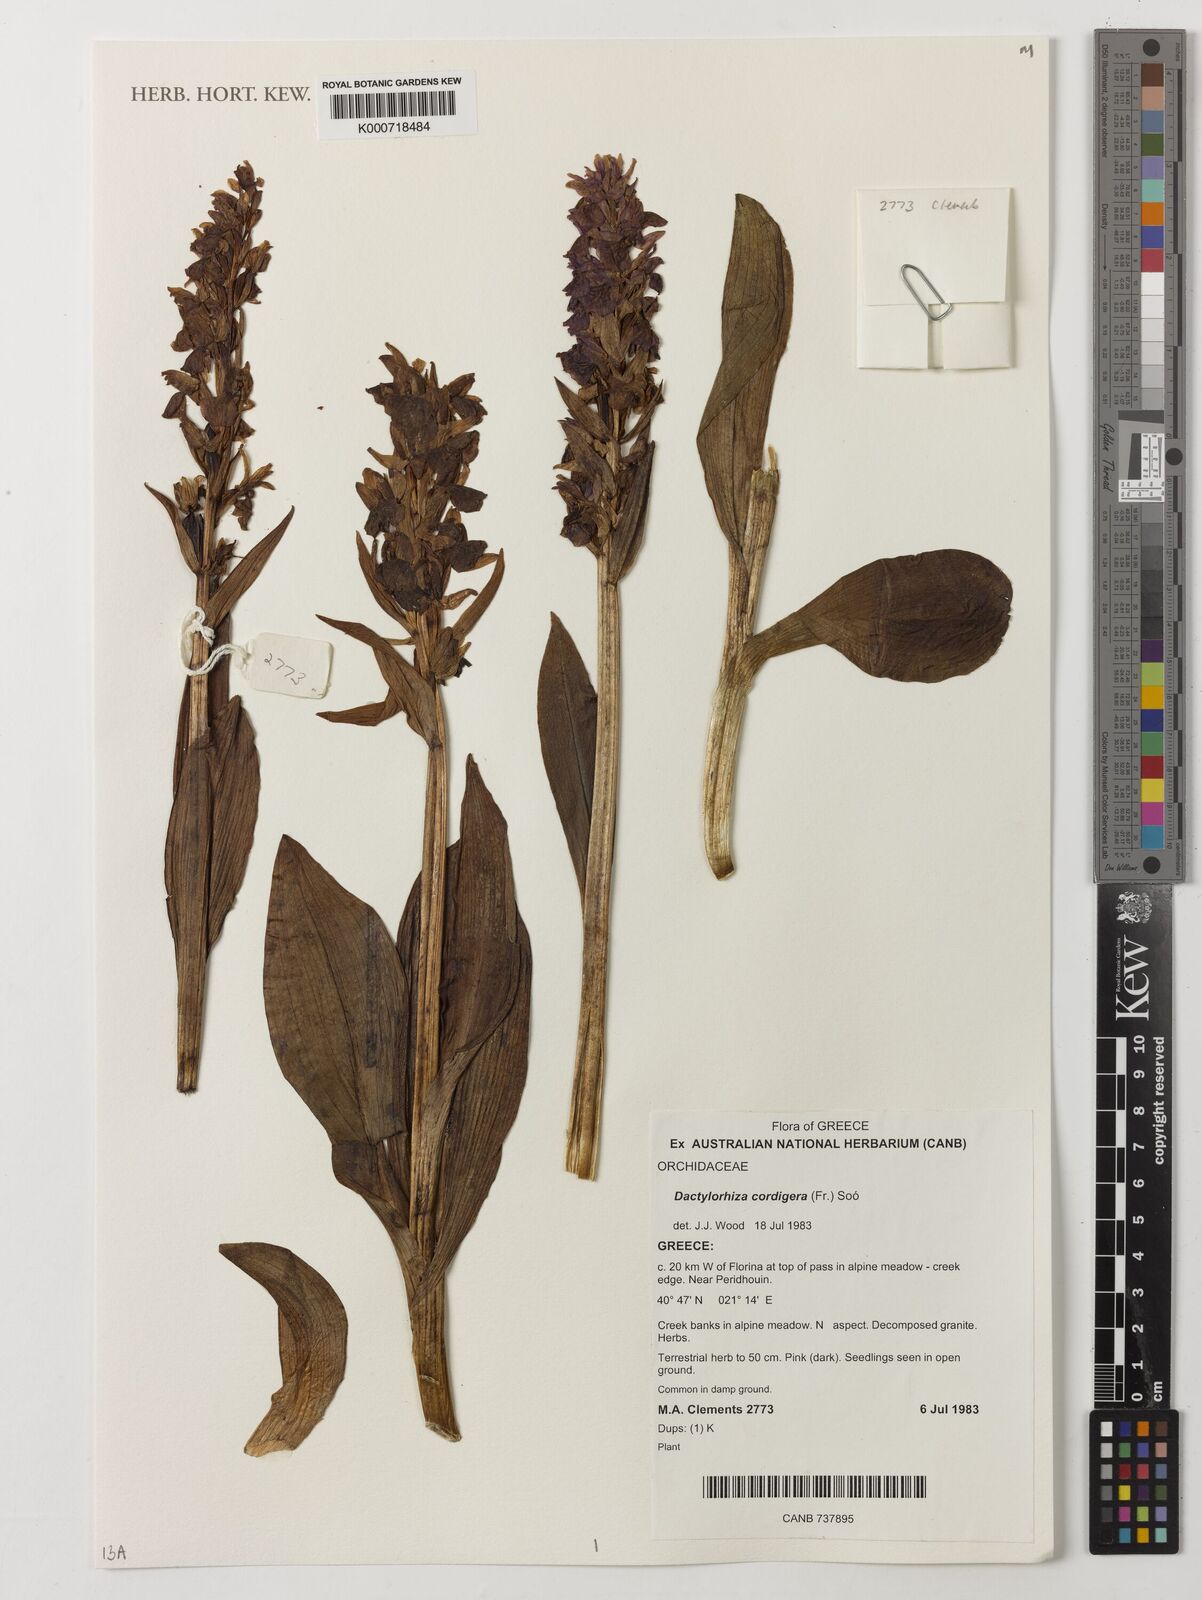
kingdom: Plantae
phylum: Tracheophyta
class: Liliopsida
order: Asparagales
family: Orchidaceae
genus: Dactylorhiza
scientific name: Dactylorhiza
